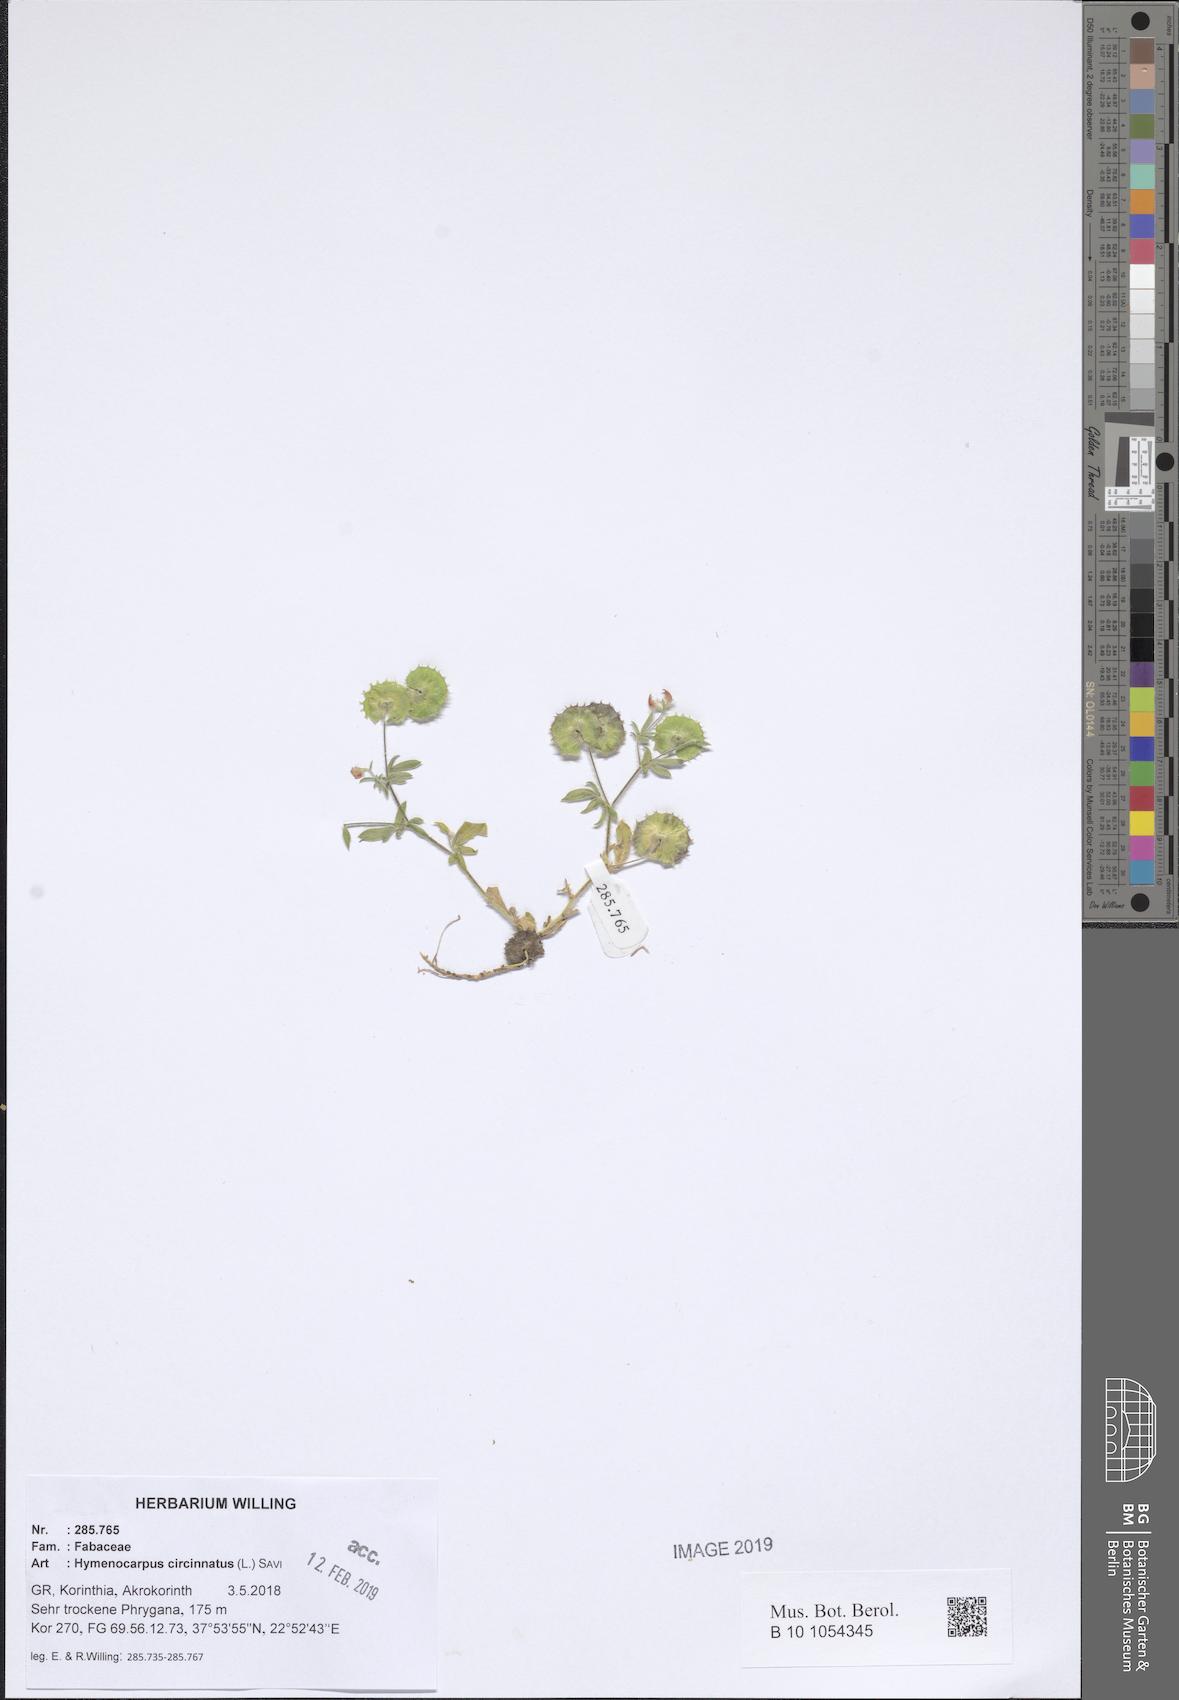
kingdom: Plantae
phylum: Tracheophyta
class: Magnoliopsida
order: Fabales
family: Fabaceae
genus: Anthyllis
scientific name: Anthyllis circinnata
